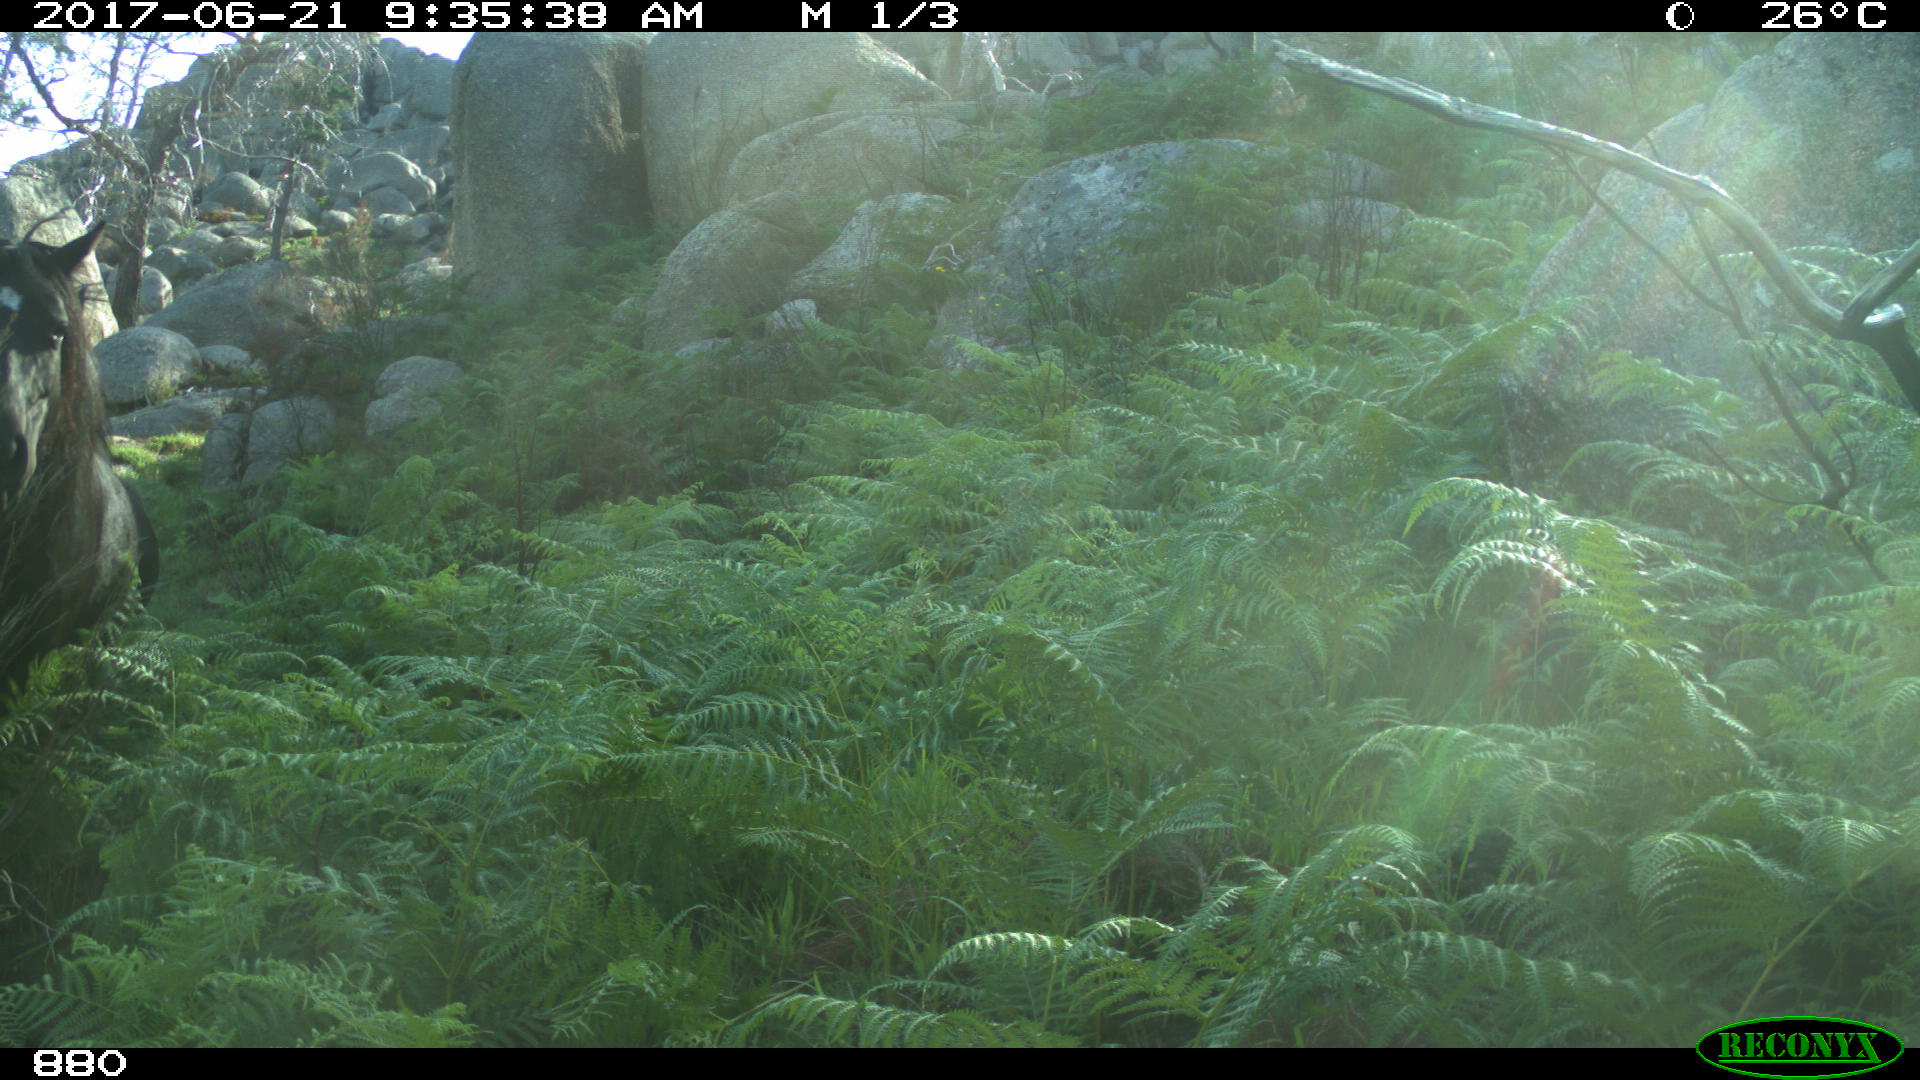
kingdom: Animalia
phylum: Chordata
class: Mammalia
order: Perissodactyla
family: Equidae
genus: Equus
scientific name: Equus caballus
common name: Horse
